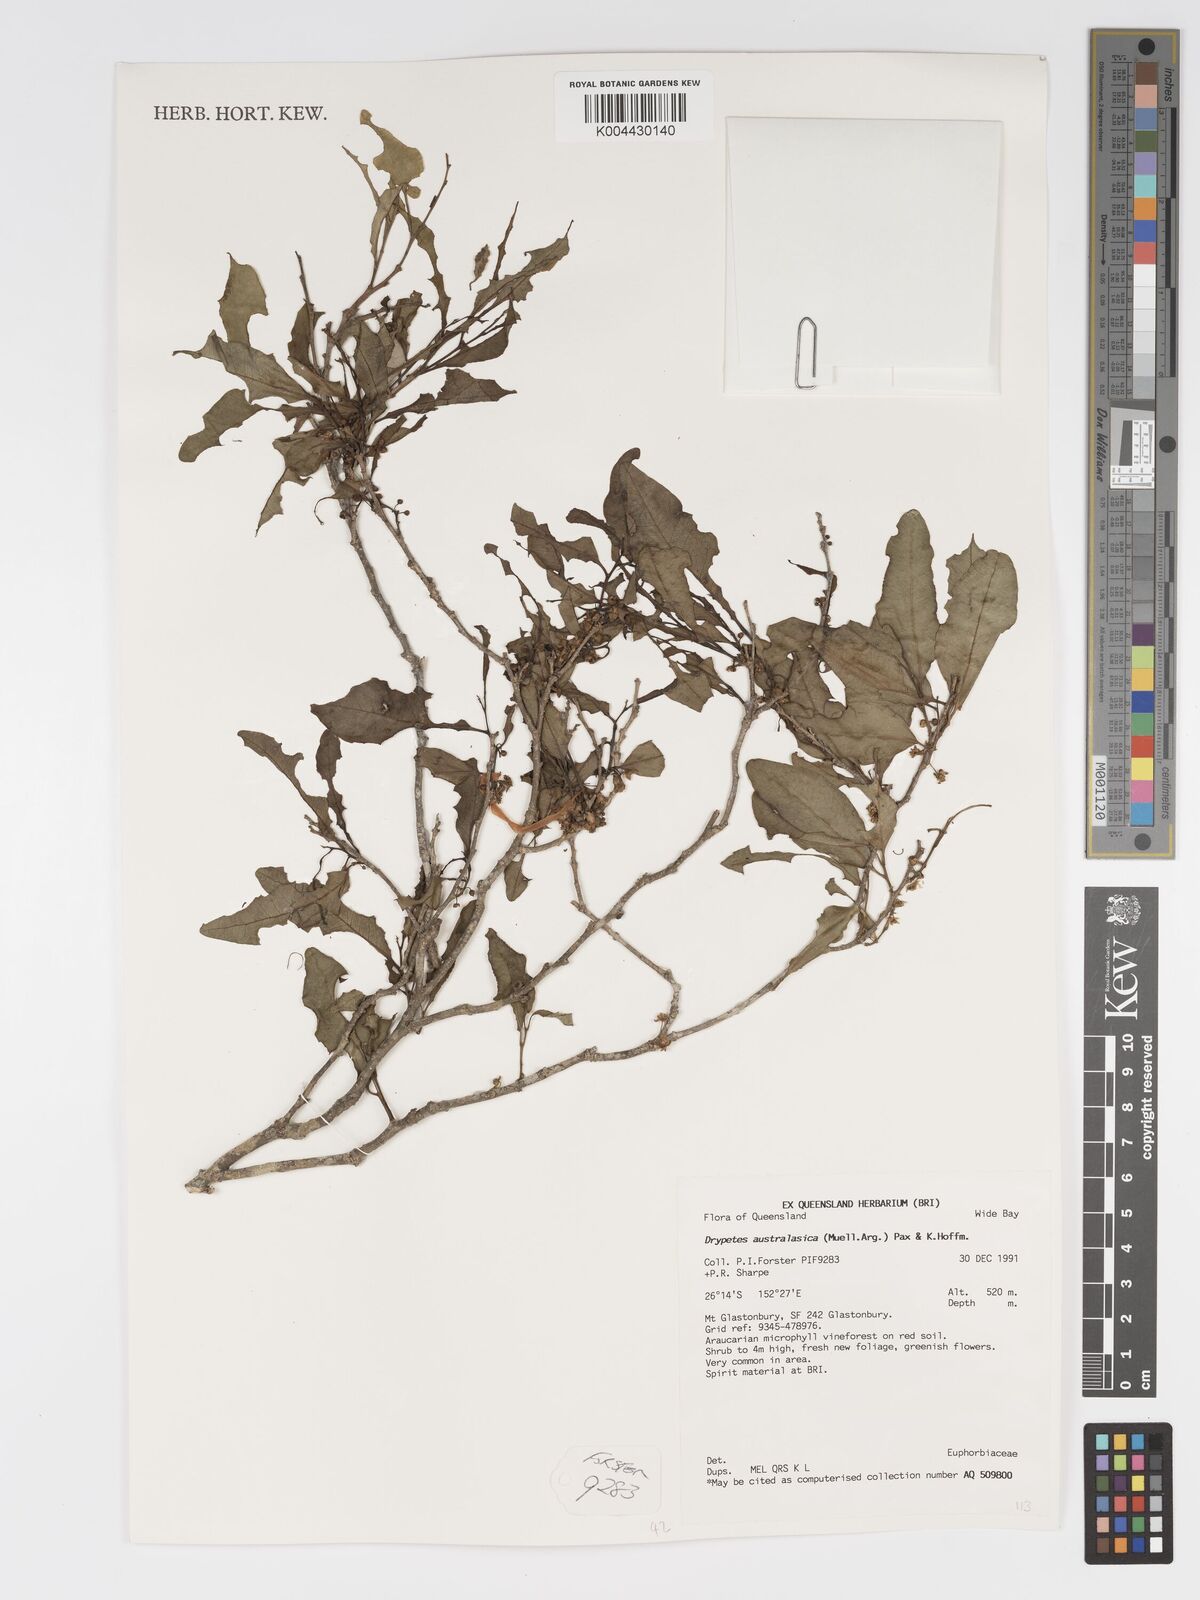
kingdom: Plantae
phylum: Tracheophyta
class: Magnoliopsida
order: Malpighiales
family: Putranjivaceae
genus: Drypetes
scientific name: Drypetes deplanchei
